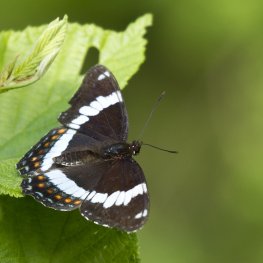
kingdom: Animalia
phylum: Arthropoda
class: Insecta
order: Lepidoptera
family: Nymphalidae
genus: Limenitis
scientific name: Limenitis arthemis
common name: Red-spotted Admiral
